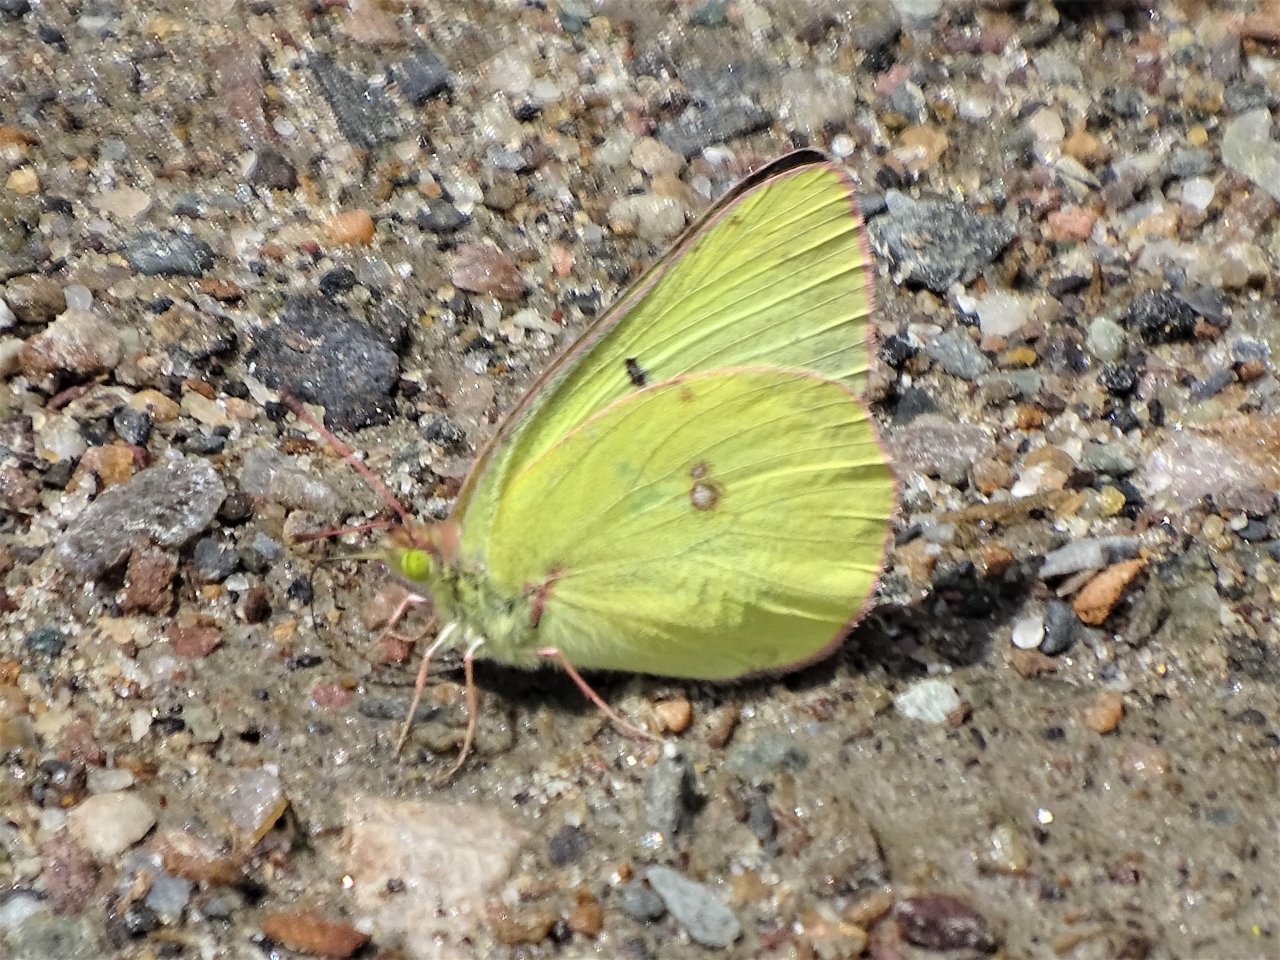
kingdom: Animalia
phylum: Arthropoda
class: Insecta
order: Lepidoptera
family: Pieridae
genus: Colias
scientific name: Colias philodice
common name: Clouded Sulphur
